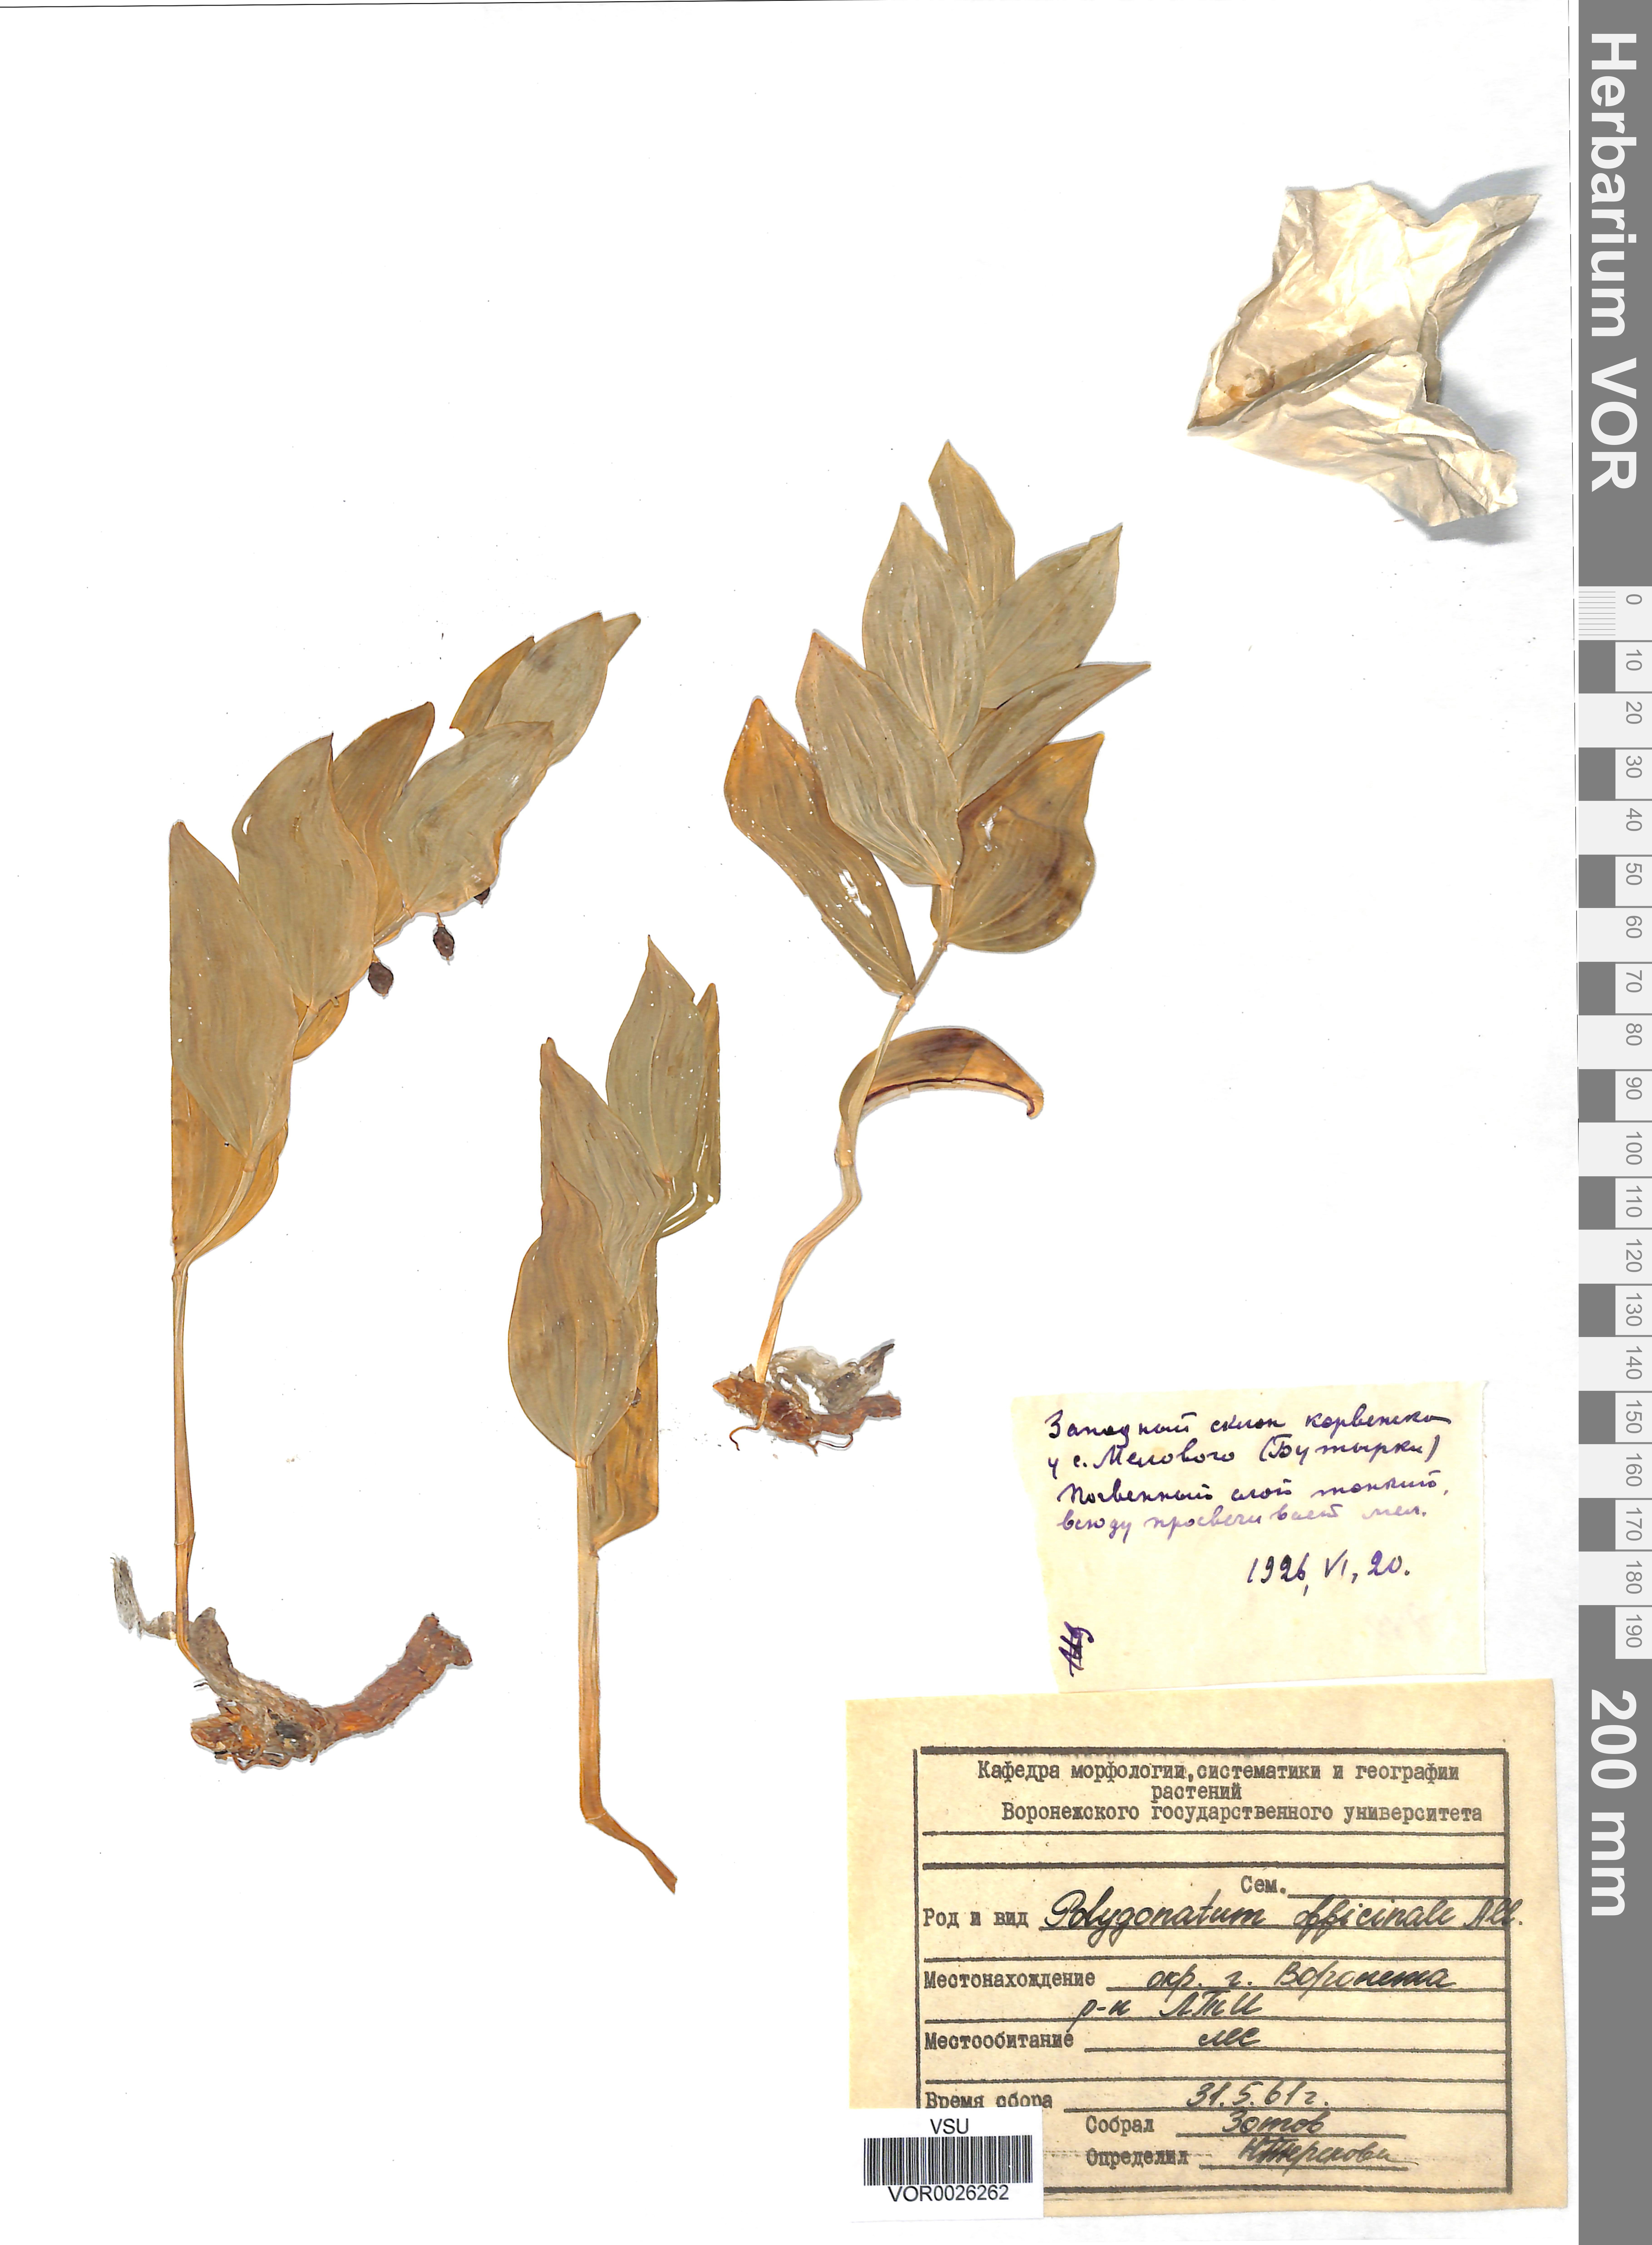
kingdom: Plantae
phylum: Tracheophyta
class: Liliopsida
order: Asparagales
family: Asparagaceae
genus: Polygonatum
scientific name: Polygonatum odoratum
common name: Angular solomon's-seal
